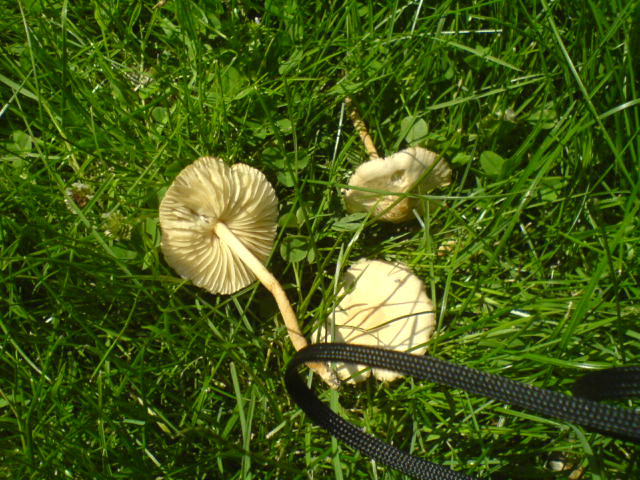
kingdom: Fungi
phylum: Basidiomycota
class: Agaricomycetes
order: Agaricales
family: Marasmiaceae
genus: Marasmius
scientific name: Marasmius oreades
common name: elledans-bruskhat
